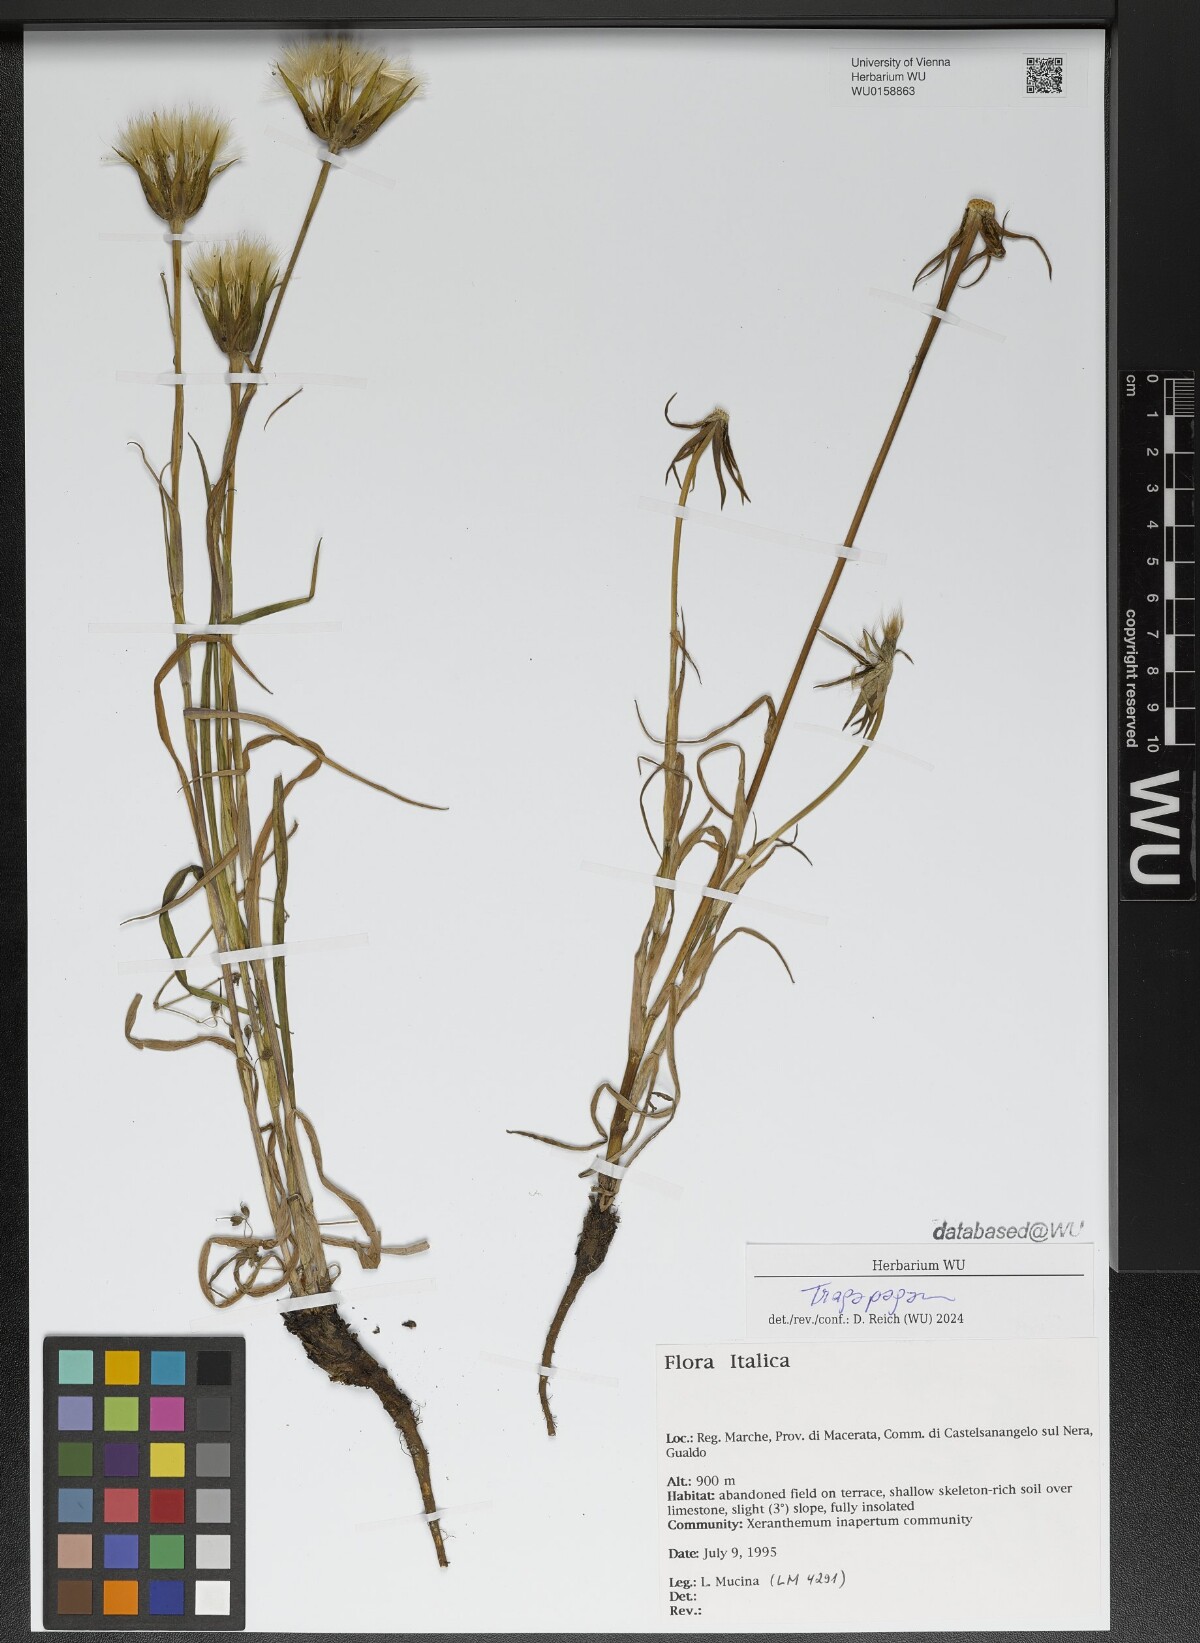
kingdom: Plantae
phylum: Tracheophyta
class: Magnoliopsida
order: Asterales
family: Asteraceae
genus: Tragopogon
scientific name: Tragopogon
